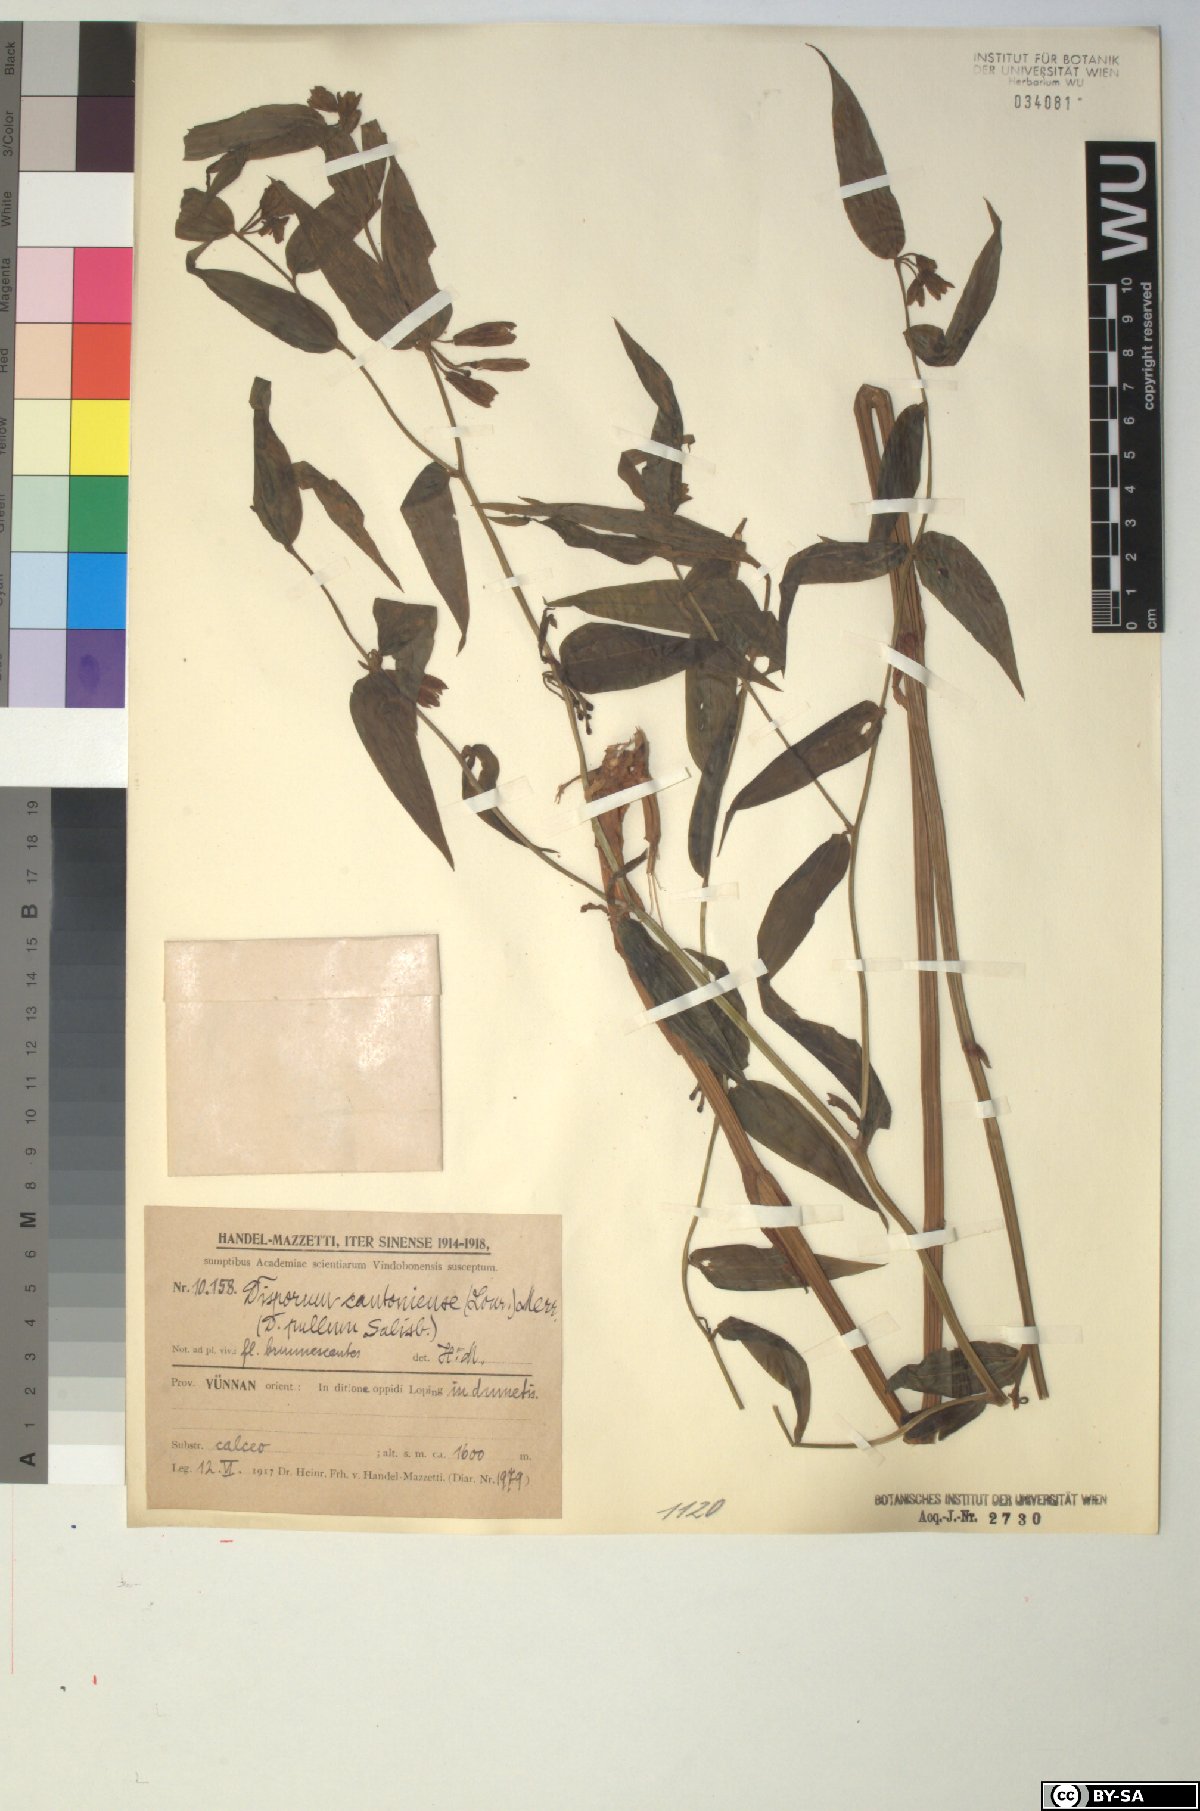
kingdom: Plantae
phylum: Tracheophyta
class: Liliopsida
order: Liliales
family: Colchicaceae
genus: Disporum
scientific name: Disporum cantoniense
